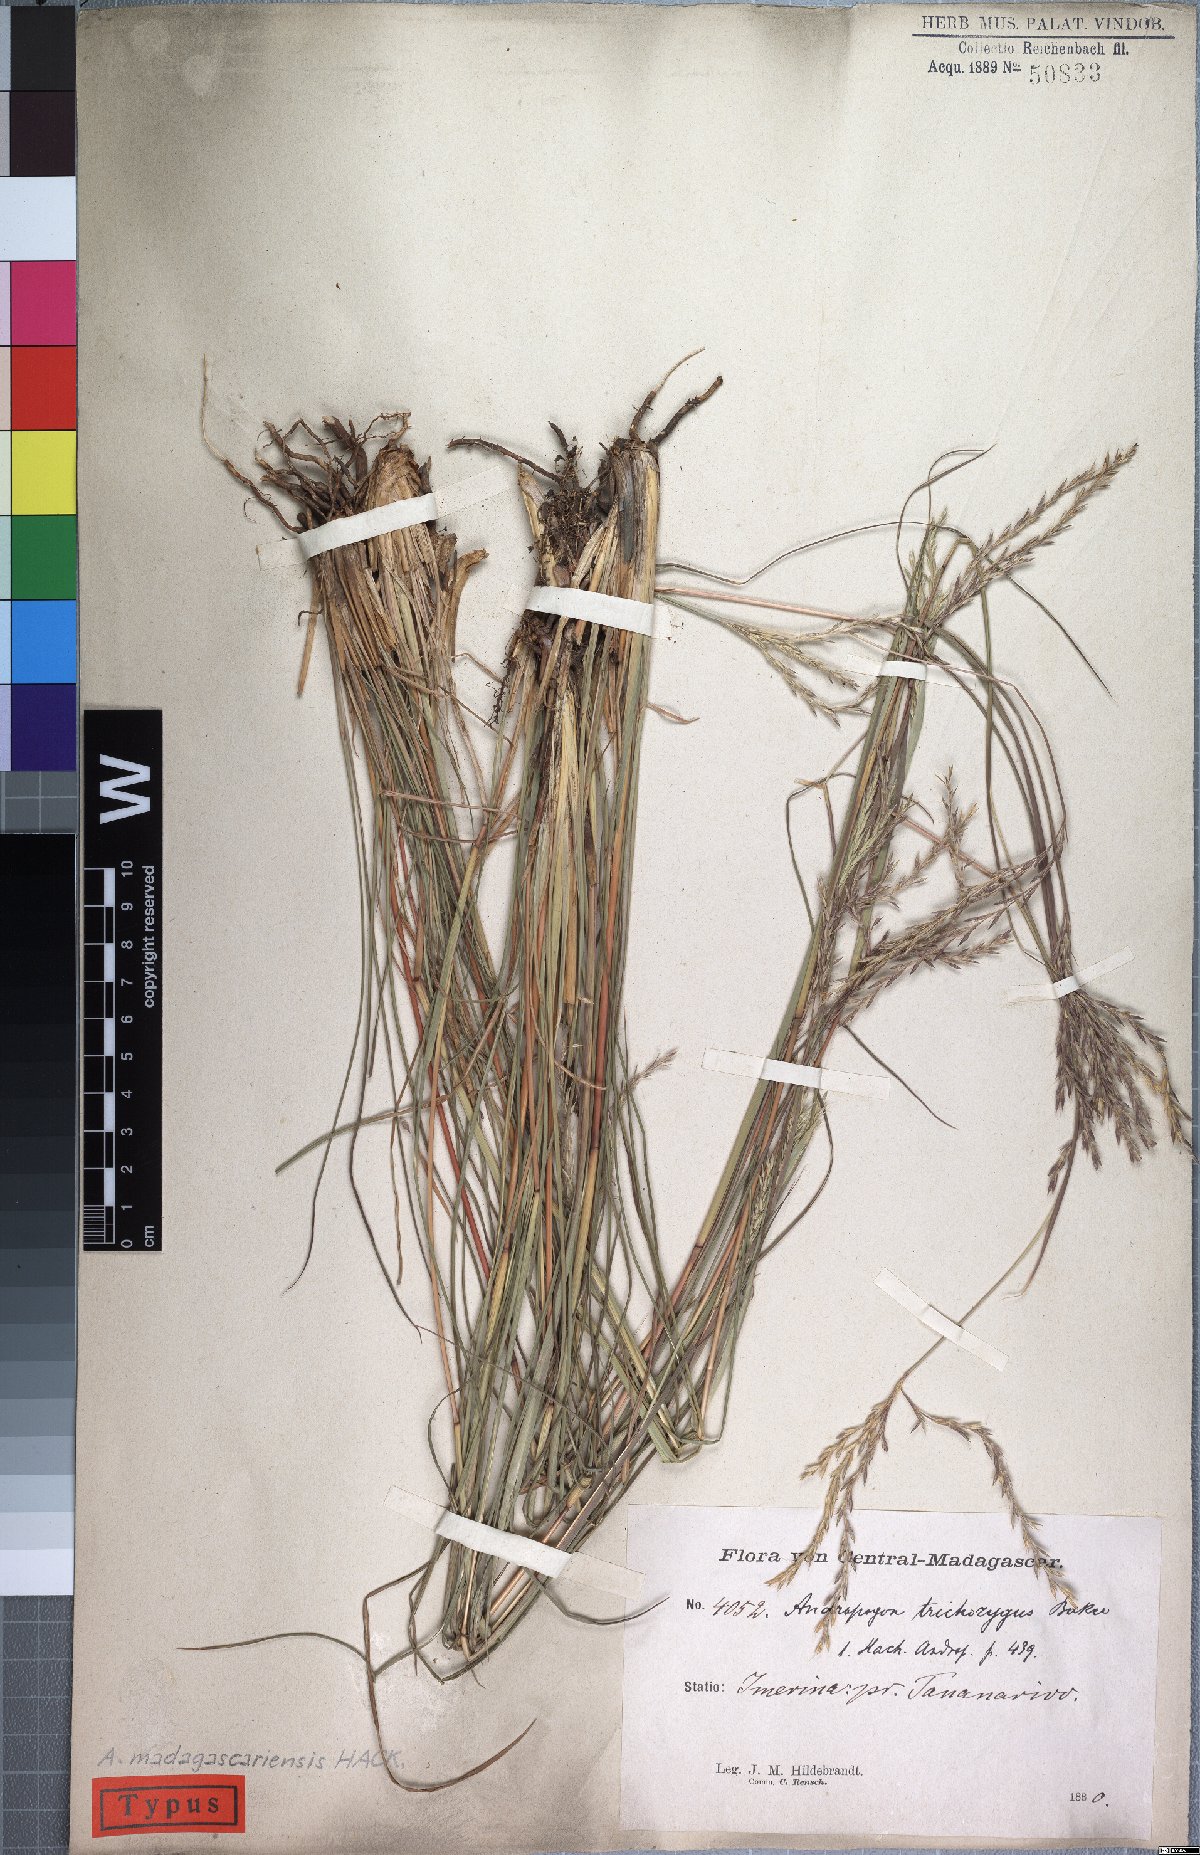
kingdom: Plantae
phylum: Tracheophyta
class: Liliopsida
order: Poales
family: Poaceae
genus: Andropogon
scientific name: Andropogon trichozygus
